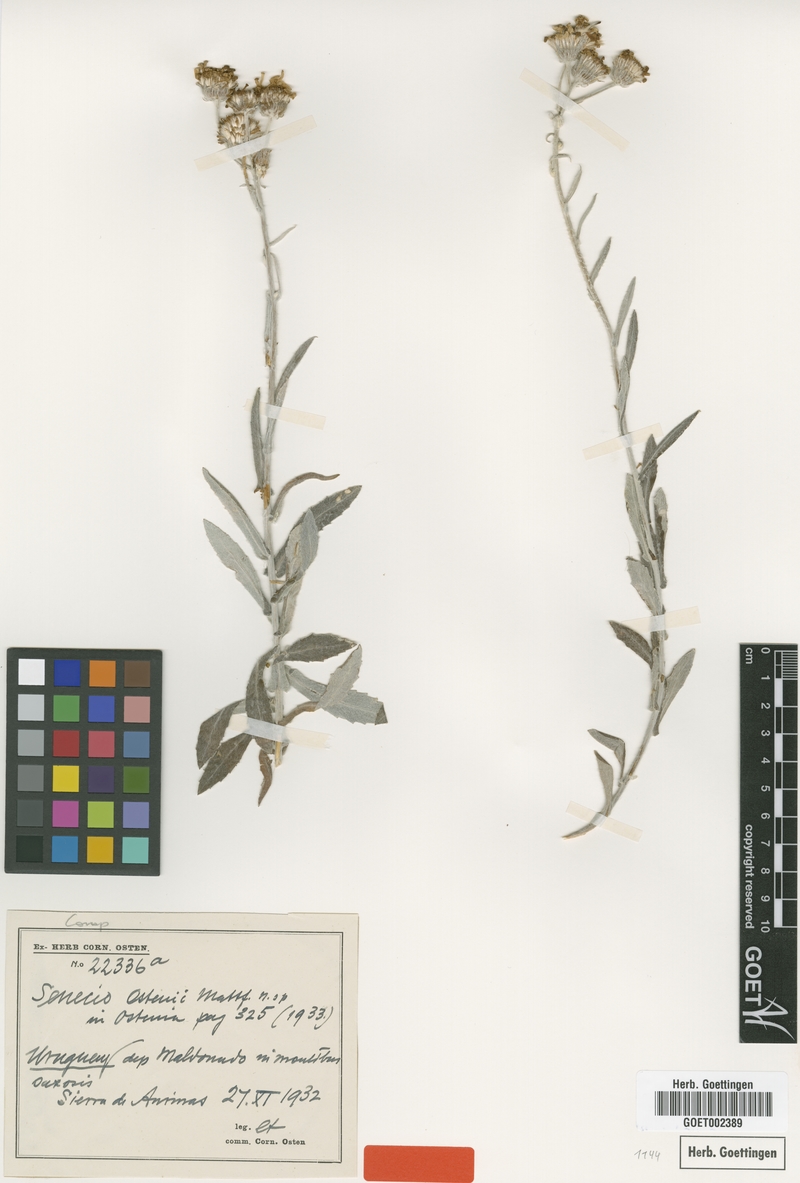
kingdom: Plantae
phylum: Tracheophyta
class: Magnoliopsida
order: Asterales
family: Asteraceae
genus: Senecio
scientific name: Senecio ostenii
